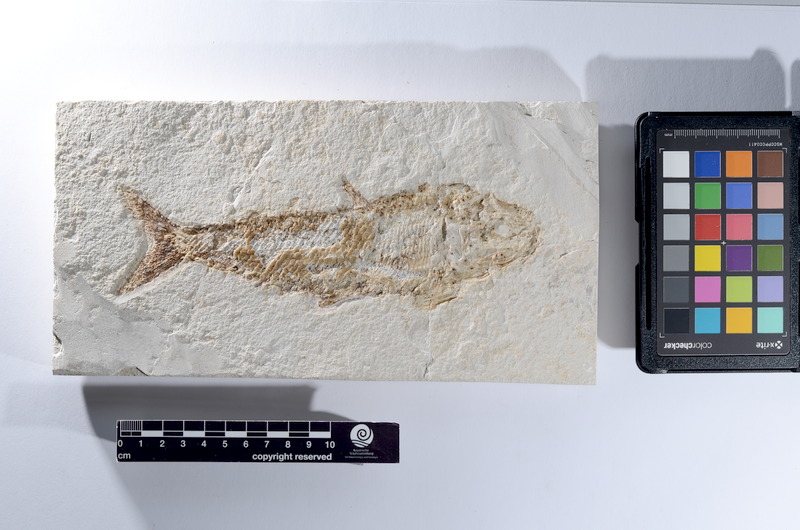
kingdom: Animalia
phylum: Chordata
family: Pholidophoridae
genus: Pholidophorus
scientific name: Pholidophorus
